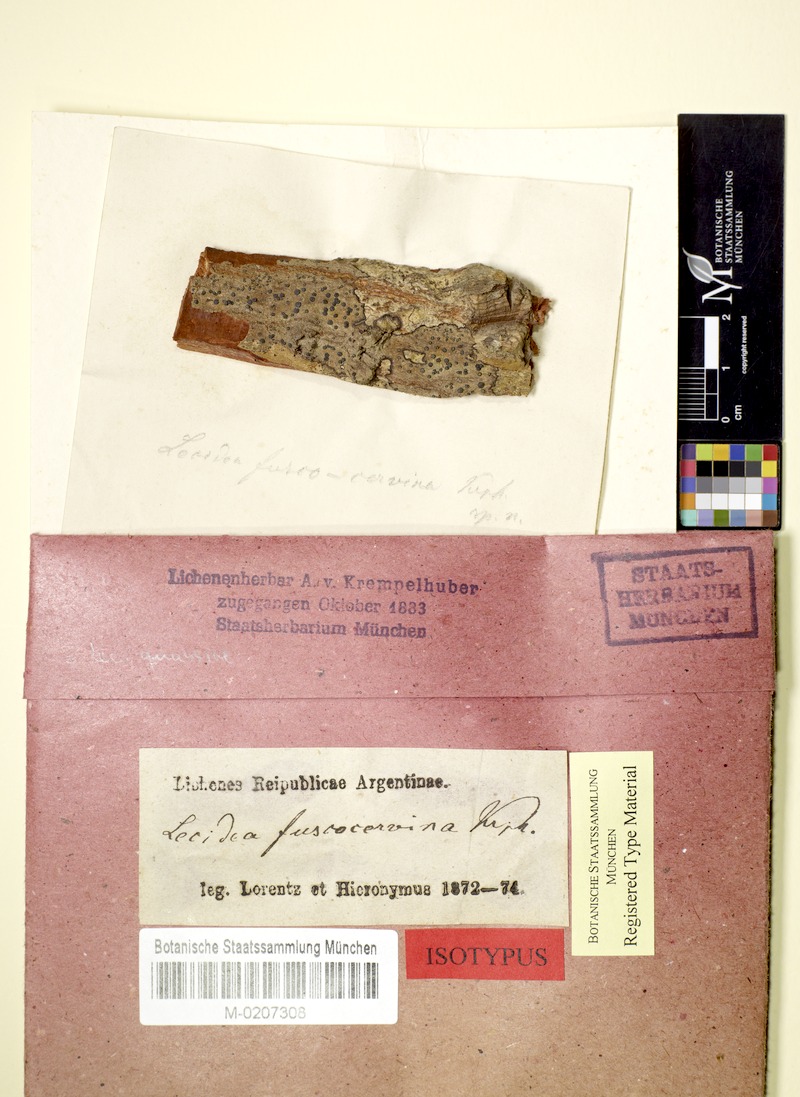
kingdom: Fungi
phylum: Ascomycota
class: Lecanoromycetes
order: Lecanorales
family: Ramalinaceae
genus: Bacidia
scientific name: Bacidia
